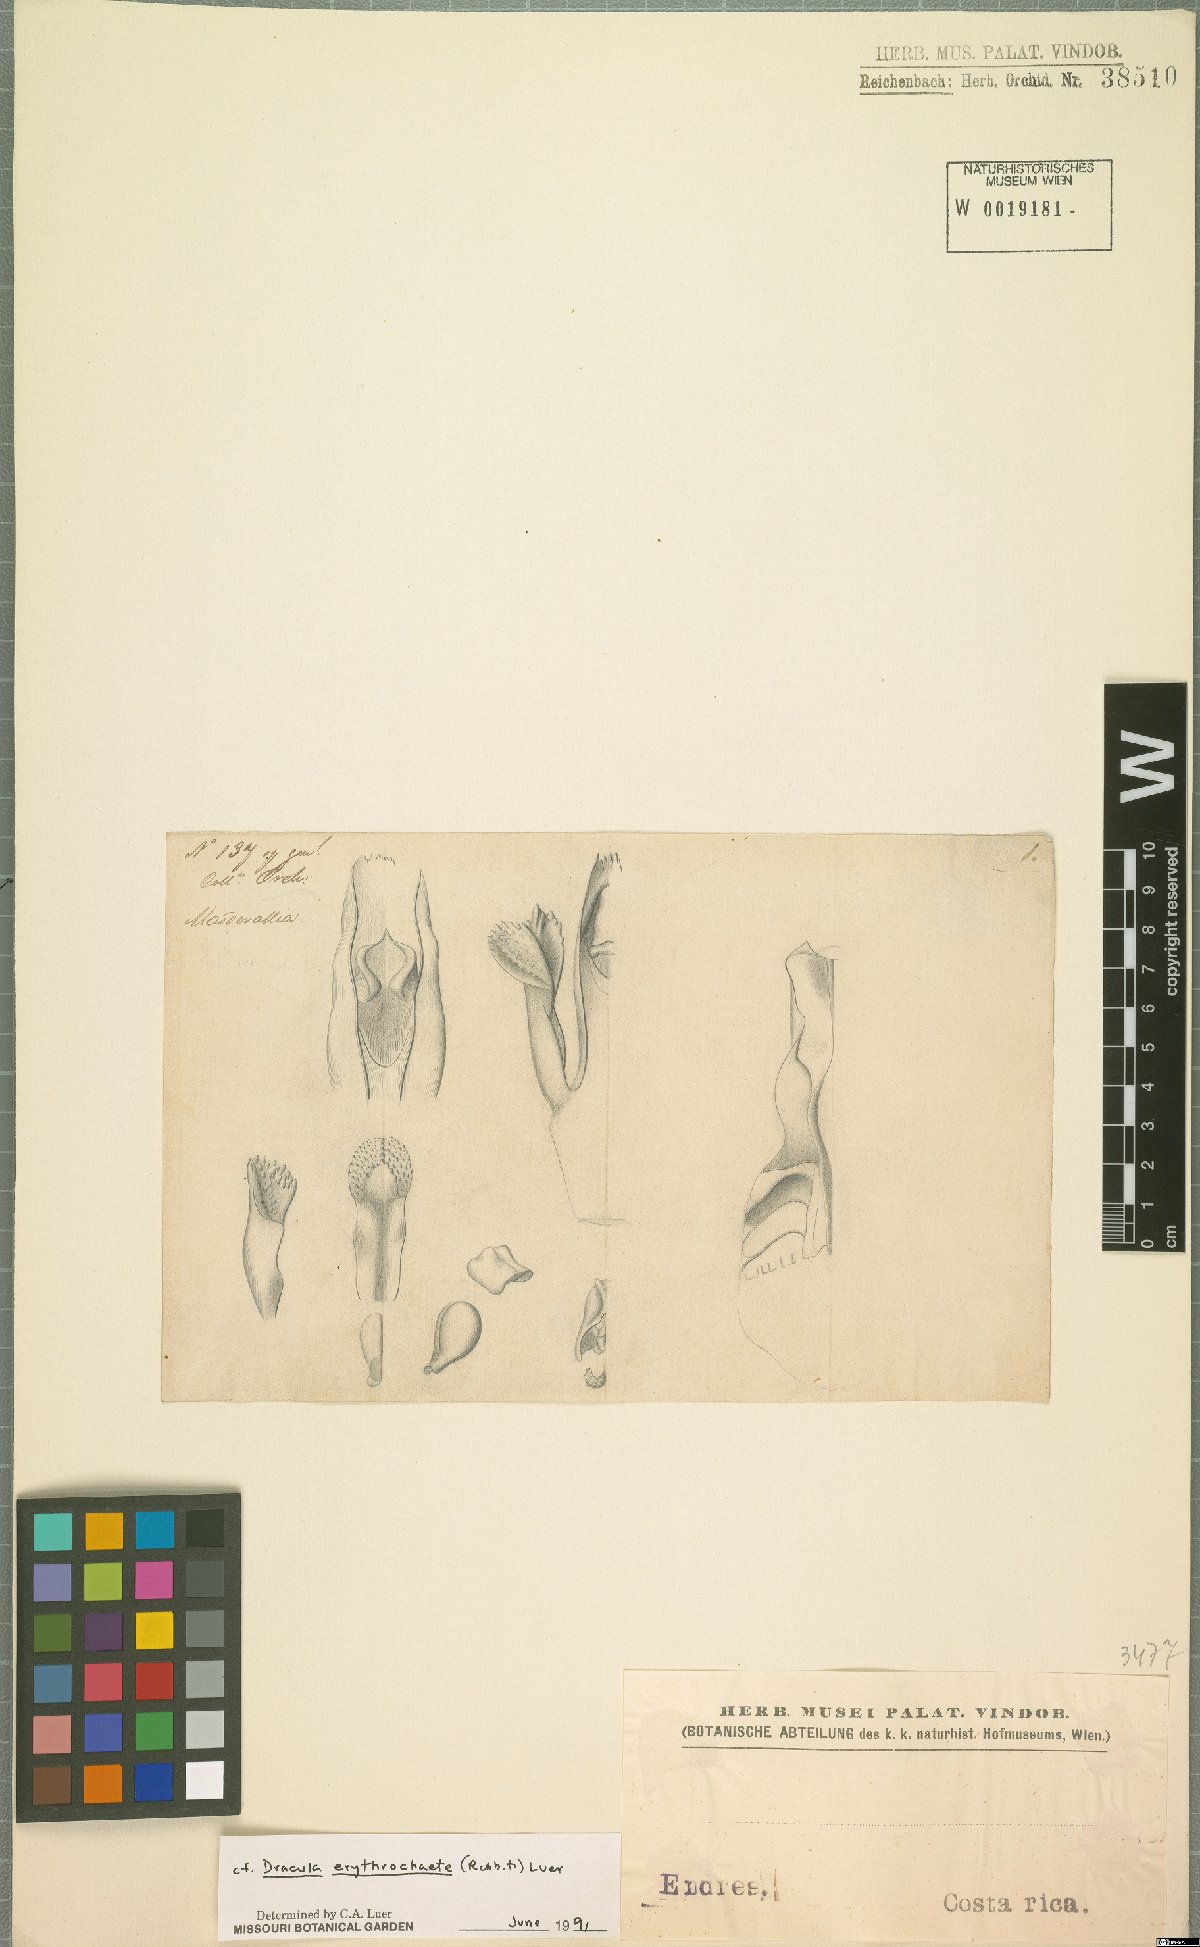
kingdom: Plantae
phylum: Tracheophyta
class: Liliopsida
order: Asparagales
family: Orchidaceae
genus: Dracula
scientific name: Dracula erythrochaete
